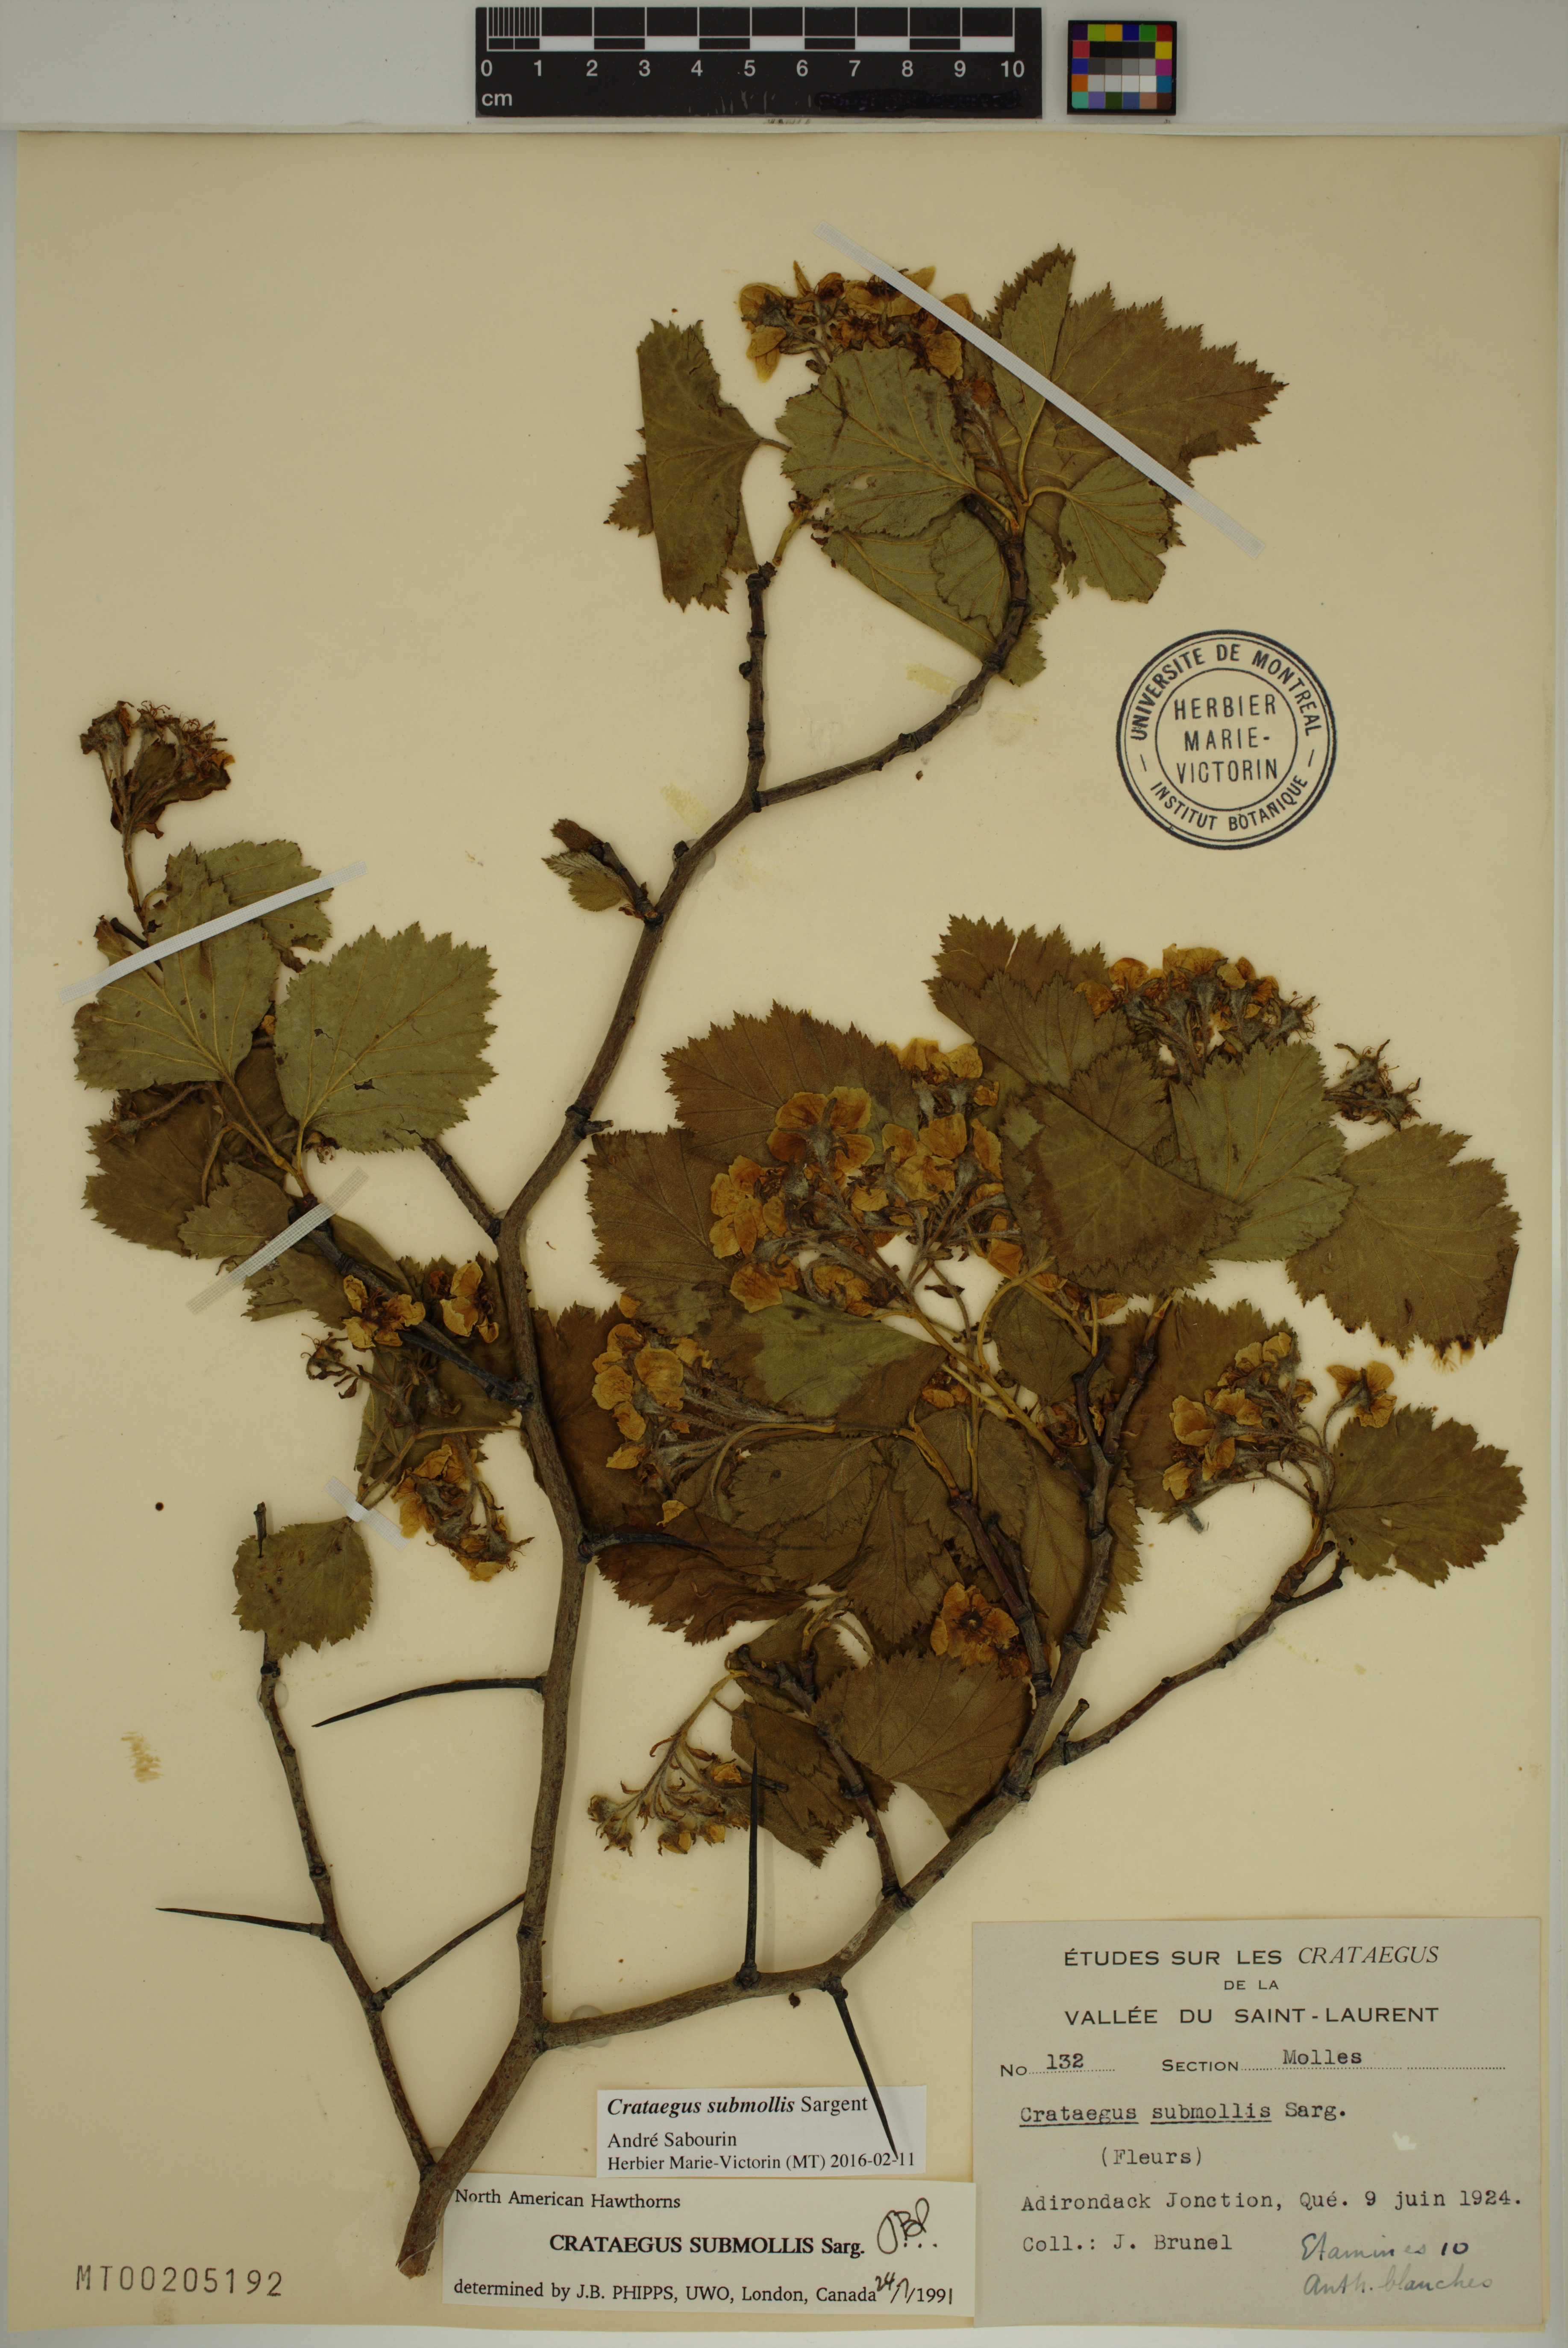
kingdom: Plantae
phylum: Tracheophyta
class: Magnoliopsida
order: Rosales
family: Rosaceae
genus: Crataegus
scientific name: Crataegus submollis
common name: Hairy cockspurthorn
